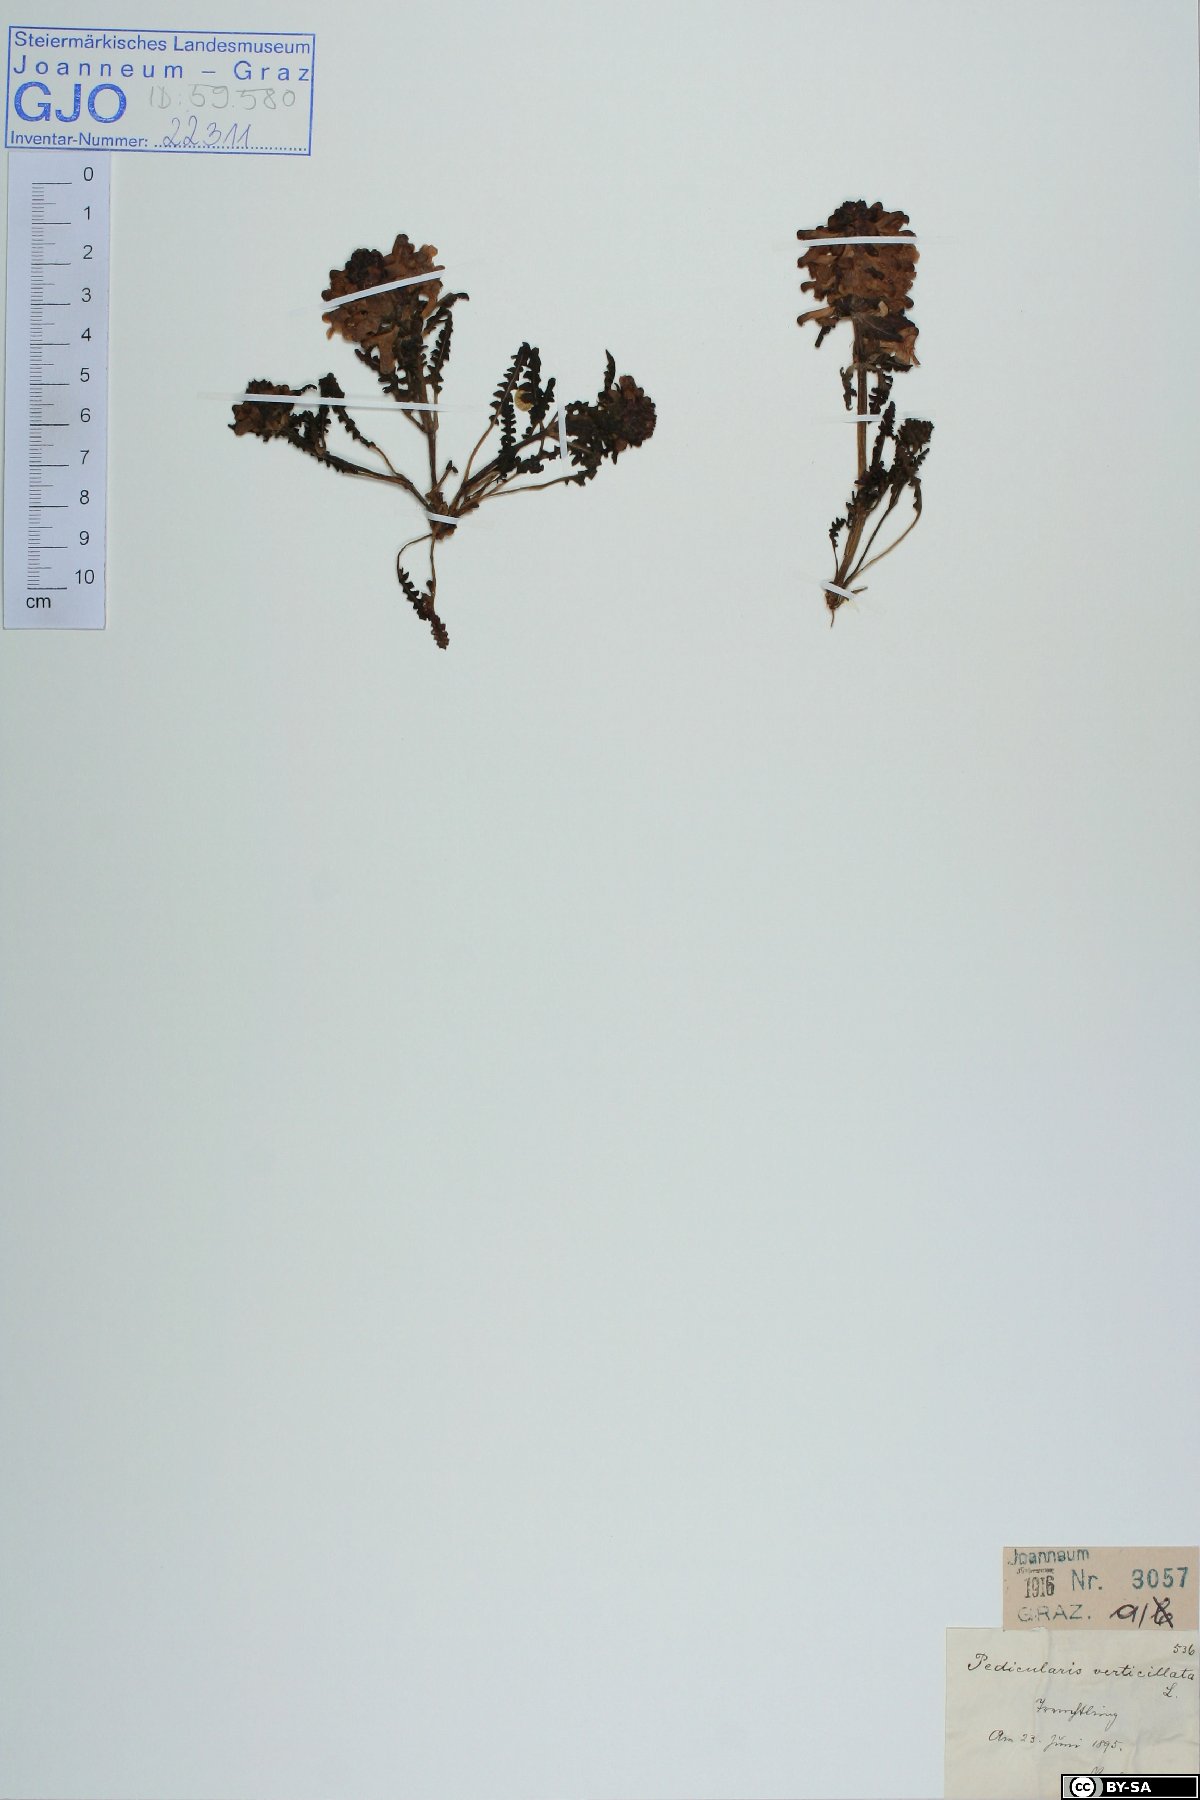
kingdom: Plantae
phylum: Tracheophyta
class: Magnoliopsida
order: Lamiales
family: Orobanchaceae
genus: Pedicularis
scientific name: Pedicularis verticillata
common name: Whorled lousewort
